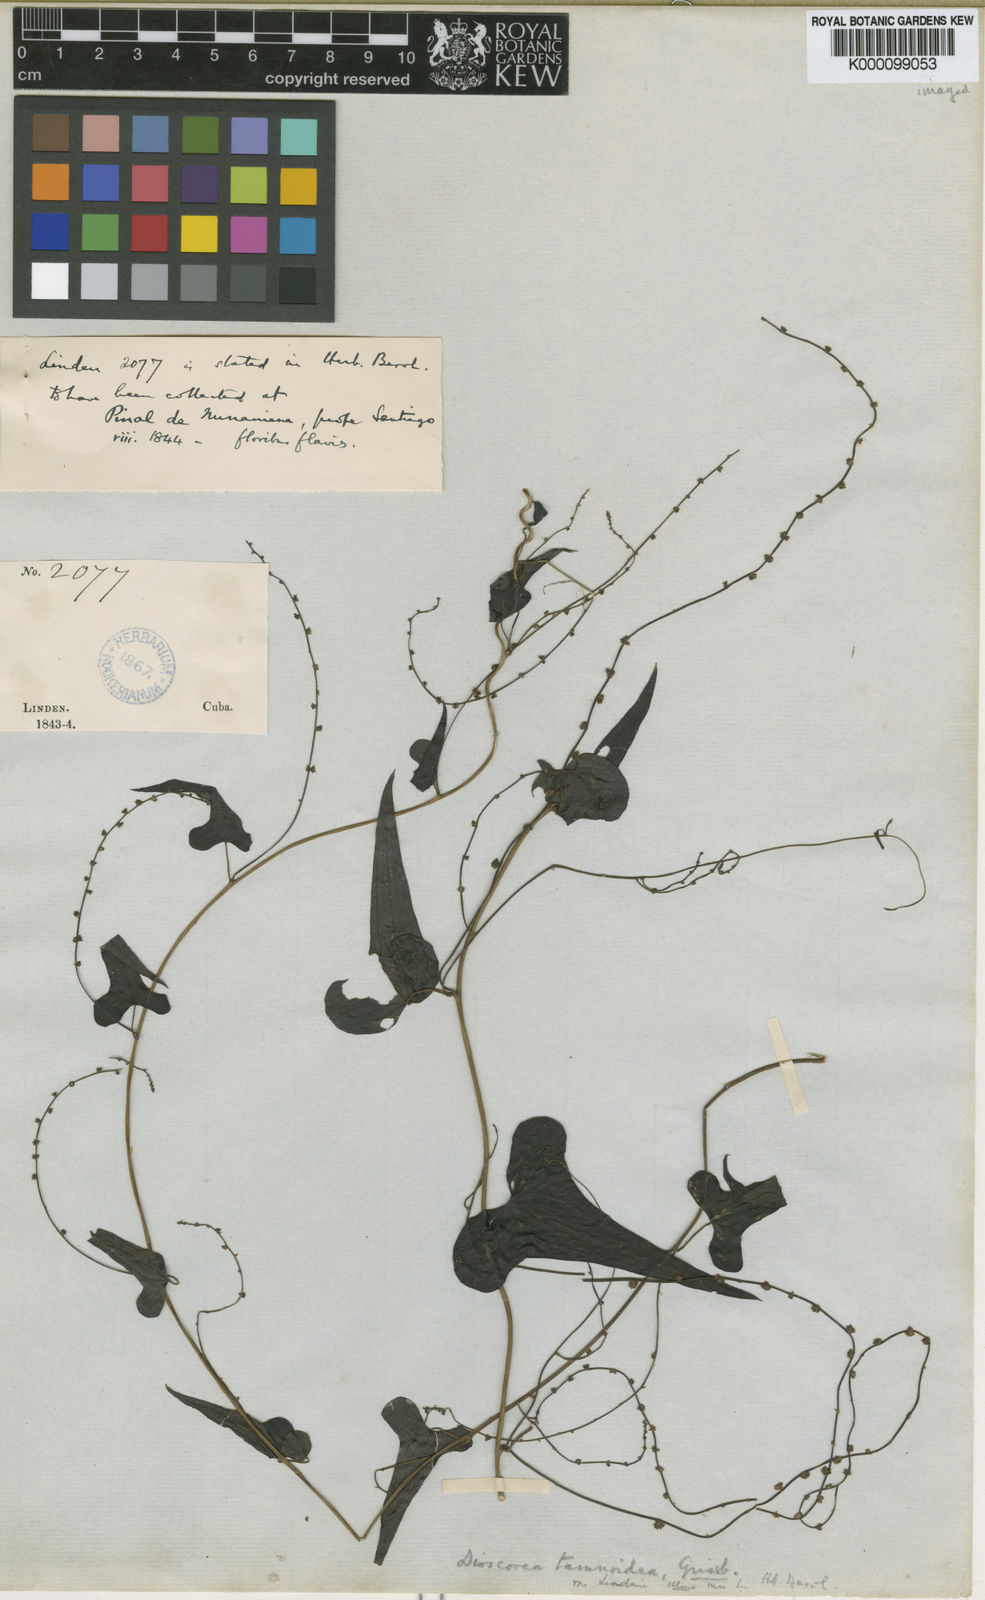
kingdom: Plantae
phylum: Tracheophyta
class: Liliopsida
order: Dioscoreales
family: Dioscoreaceae
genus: Dioscorea
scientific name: Dioscorea tamoidea
